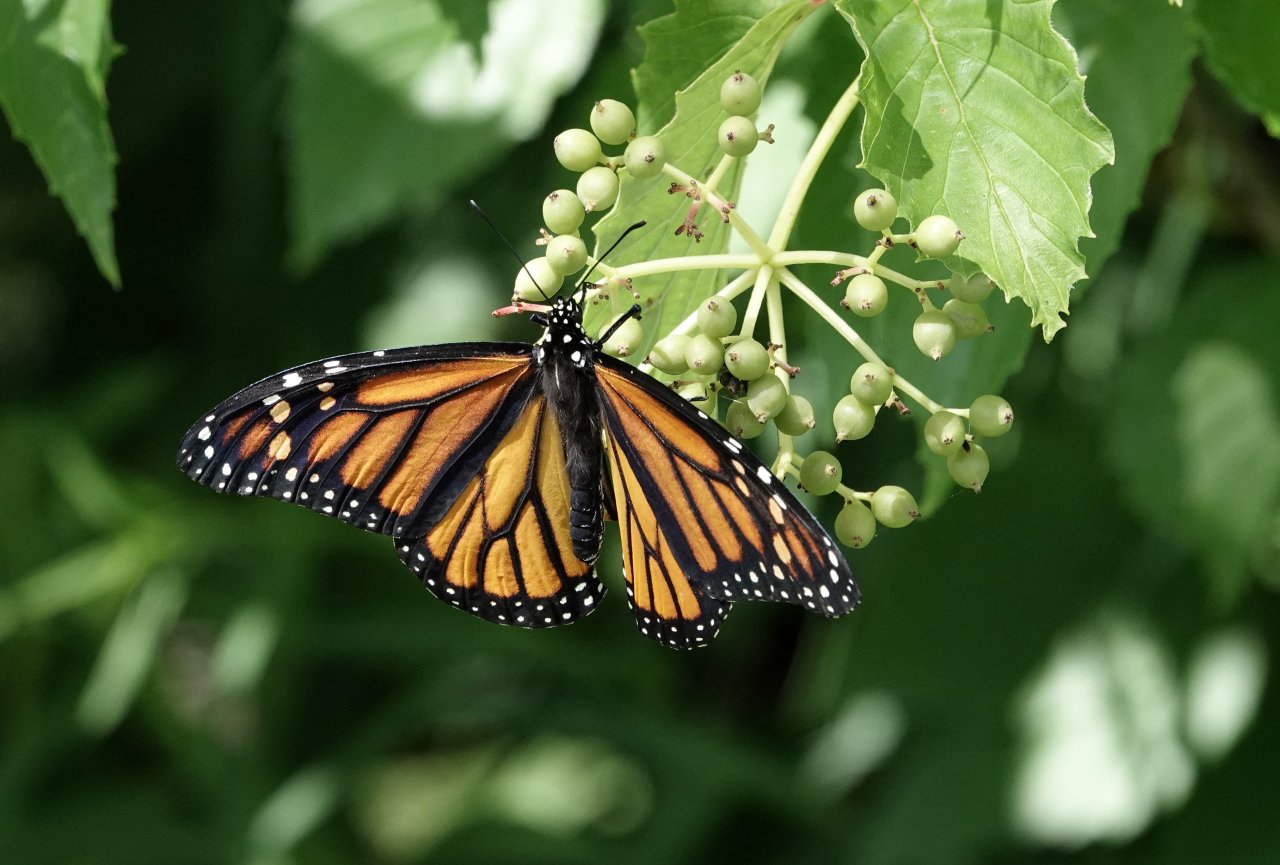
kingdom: Animalia
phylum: Arthropoda
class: Insecta
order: Lepidoptera
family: Nymphalidae
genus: Danaus
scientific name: Danaus plexippus
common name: Monarch
